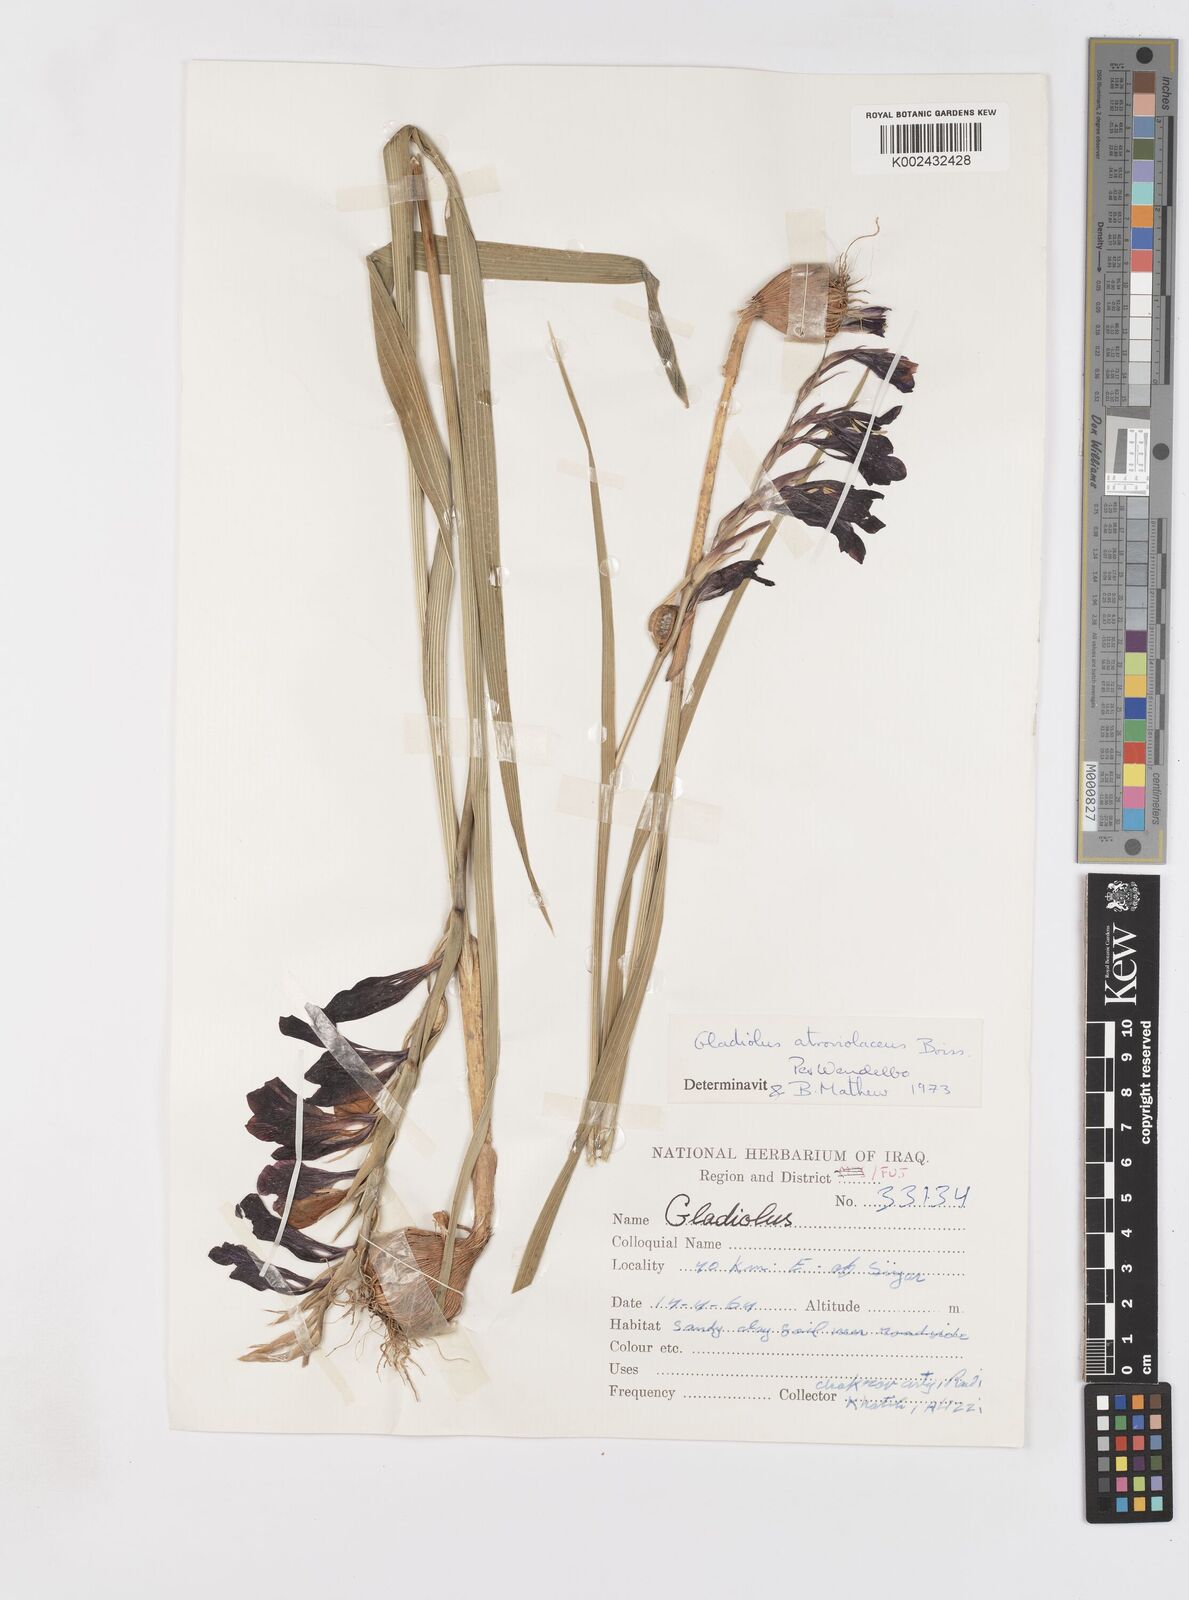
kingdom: Plantae
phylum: Tracheophyta
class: Liliopsida
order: Asparagales
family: Iridaceae
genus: Gladiolus
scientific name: Gladiolus atroviolaceus
